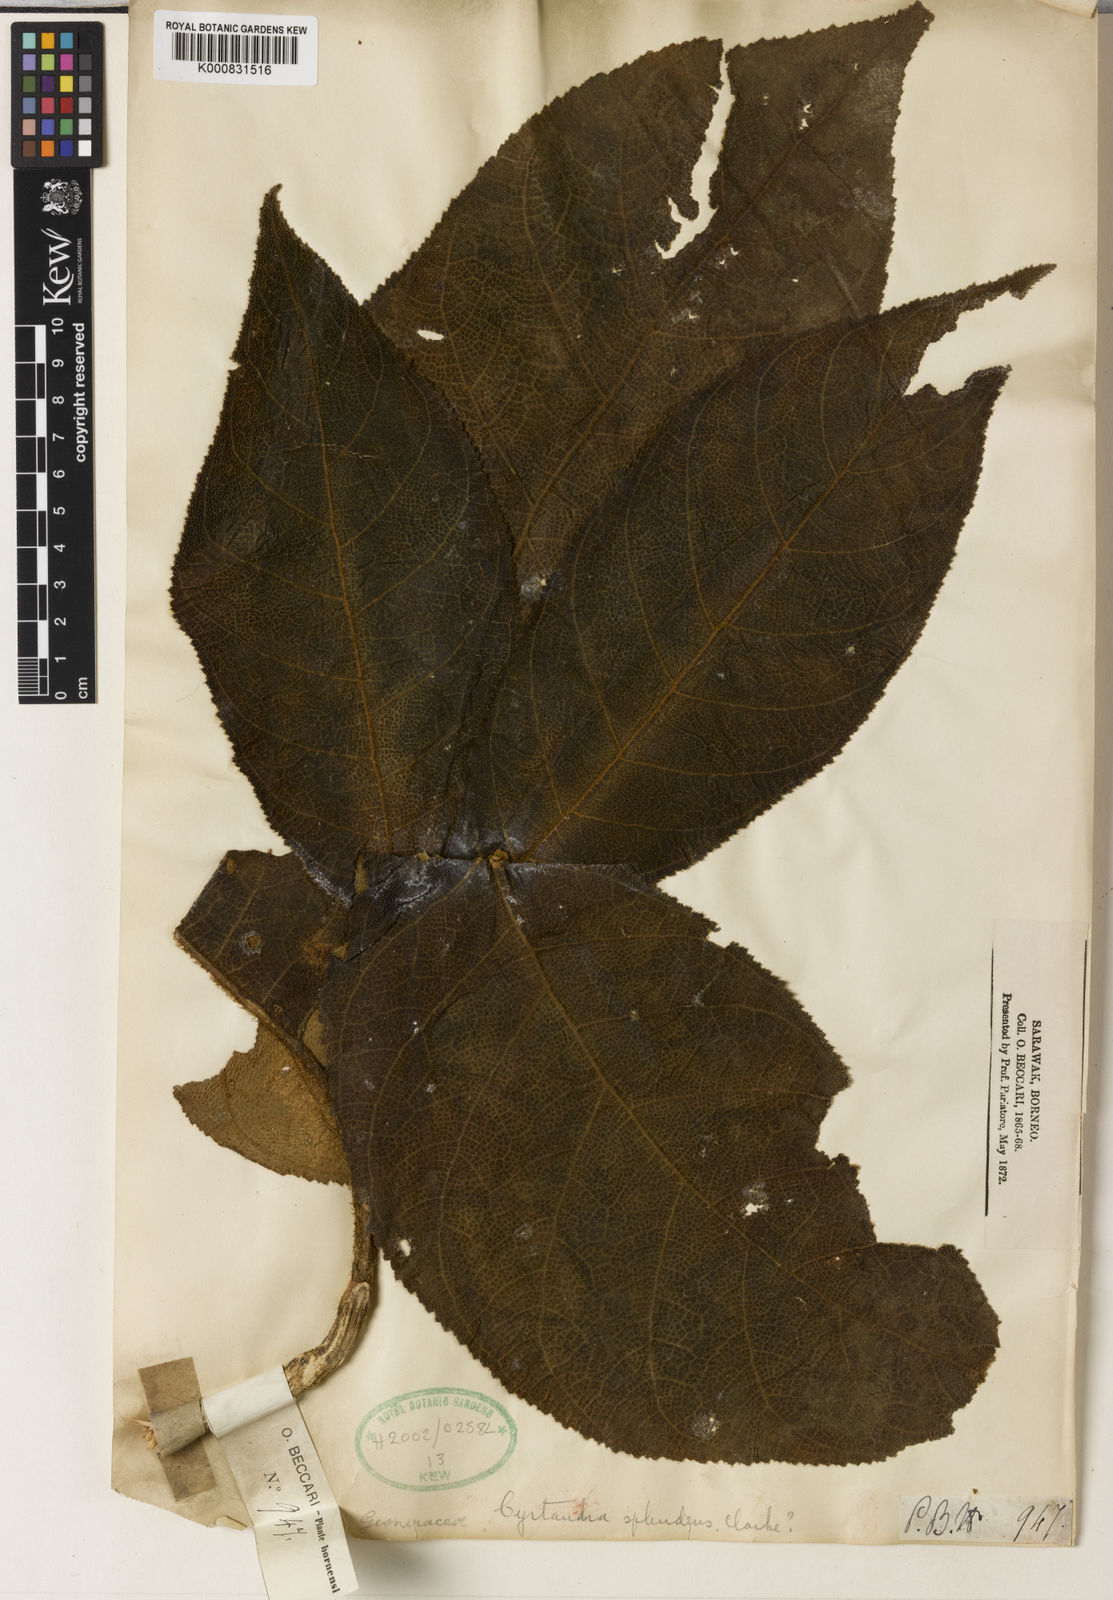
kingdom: Plantae
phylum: Tracheophyta
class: Magnoliopsida
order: Lamiales
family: Gesneriaceae
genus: Cyrtandra
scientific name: Cyrtandra splendens
